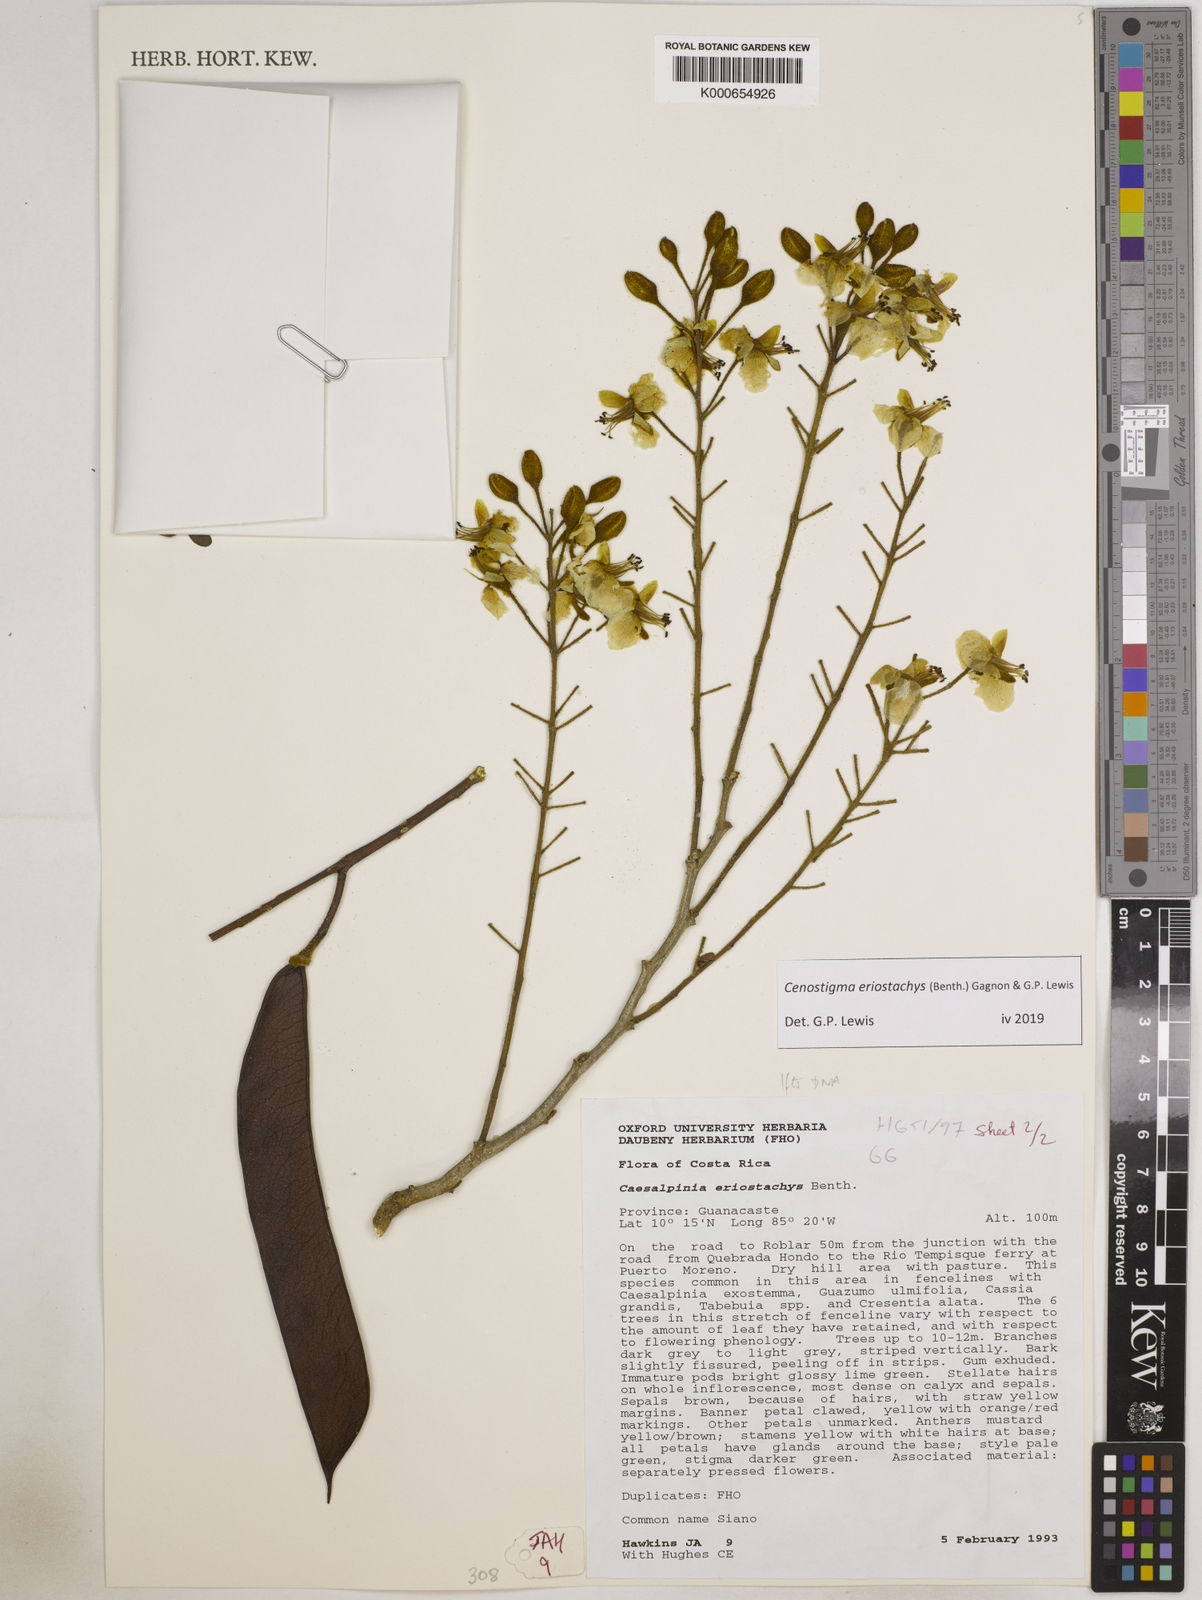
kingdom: Plantae
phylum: Tracheophyta
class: Magnoliopsida
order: Fabales
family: Fabaceae
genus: Cenostigma
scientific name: Cenostigma eriostachys
